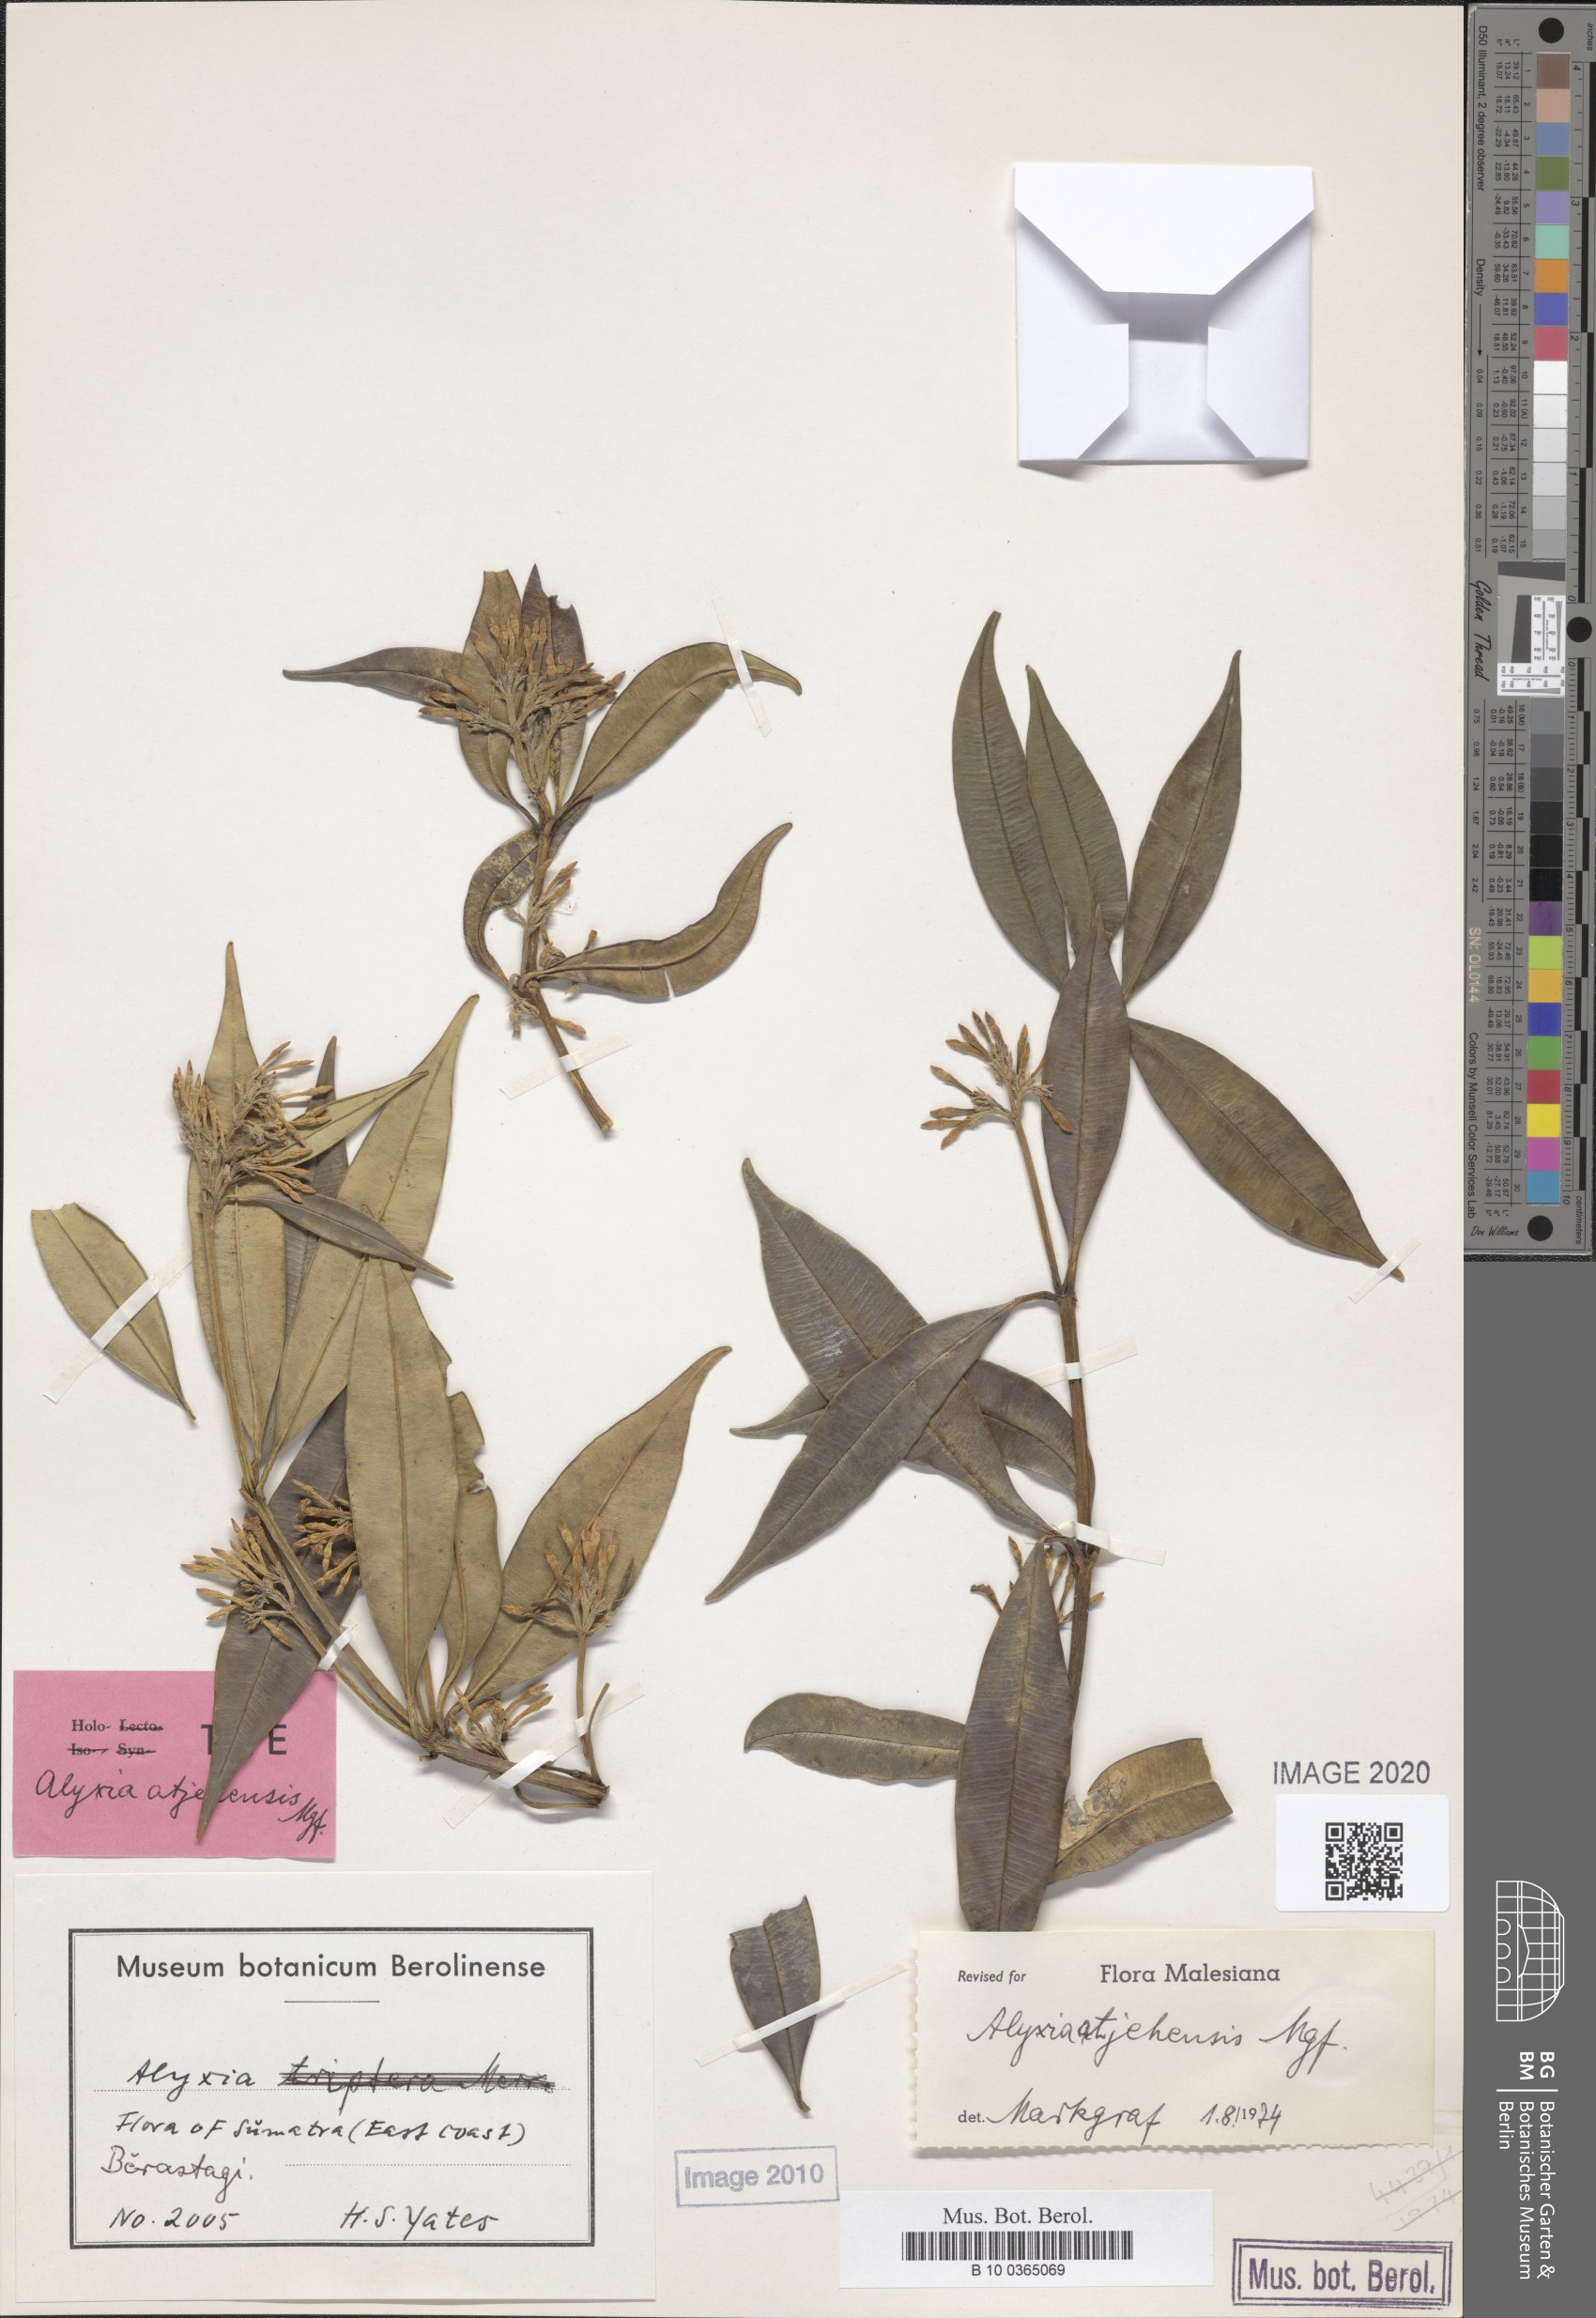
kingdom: Plantae
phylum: Tracheophyta
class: Magnoliopsida
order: Gentianales
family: Apocynaceae
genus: Alyxia
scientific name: Alyxia pilosa
